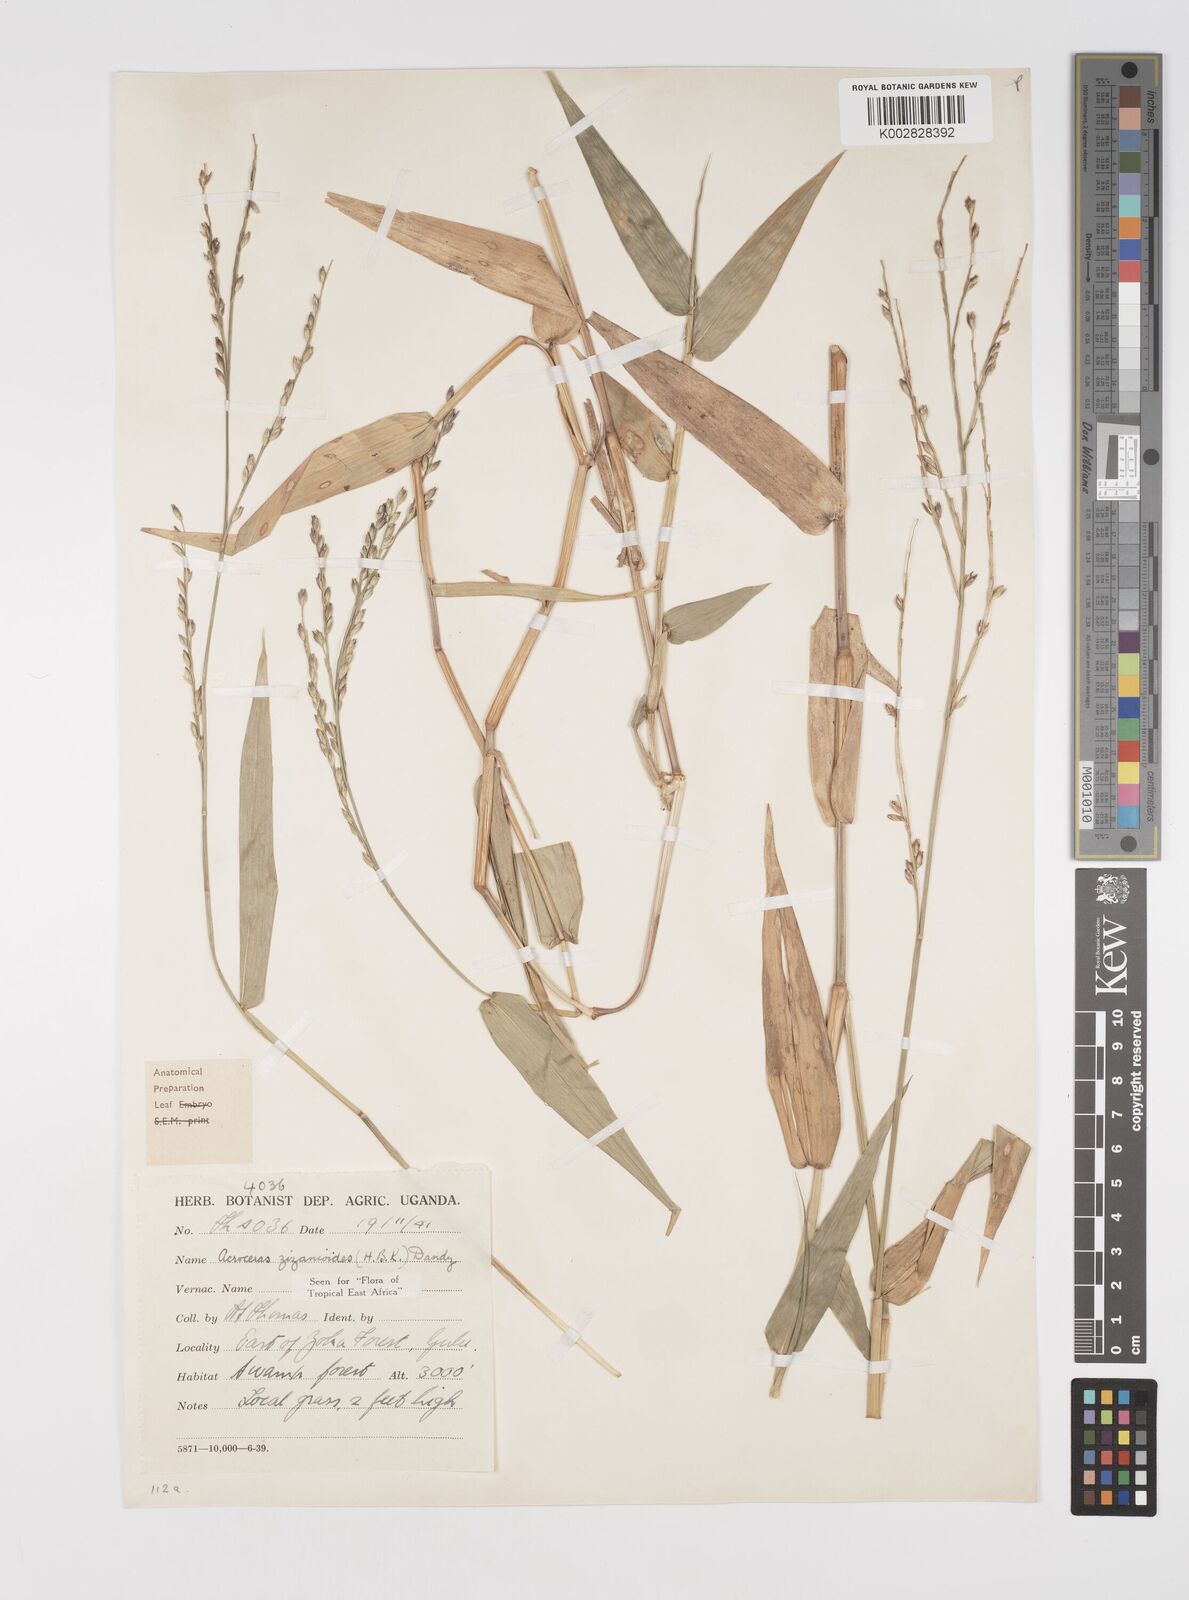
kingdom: Plantae
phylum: Tracheophyta
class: Liliopsida
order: Poales
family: Poaceae
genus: Acroceras
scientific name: Acroceras zizanioides
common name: Oat grass
